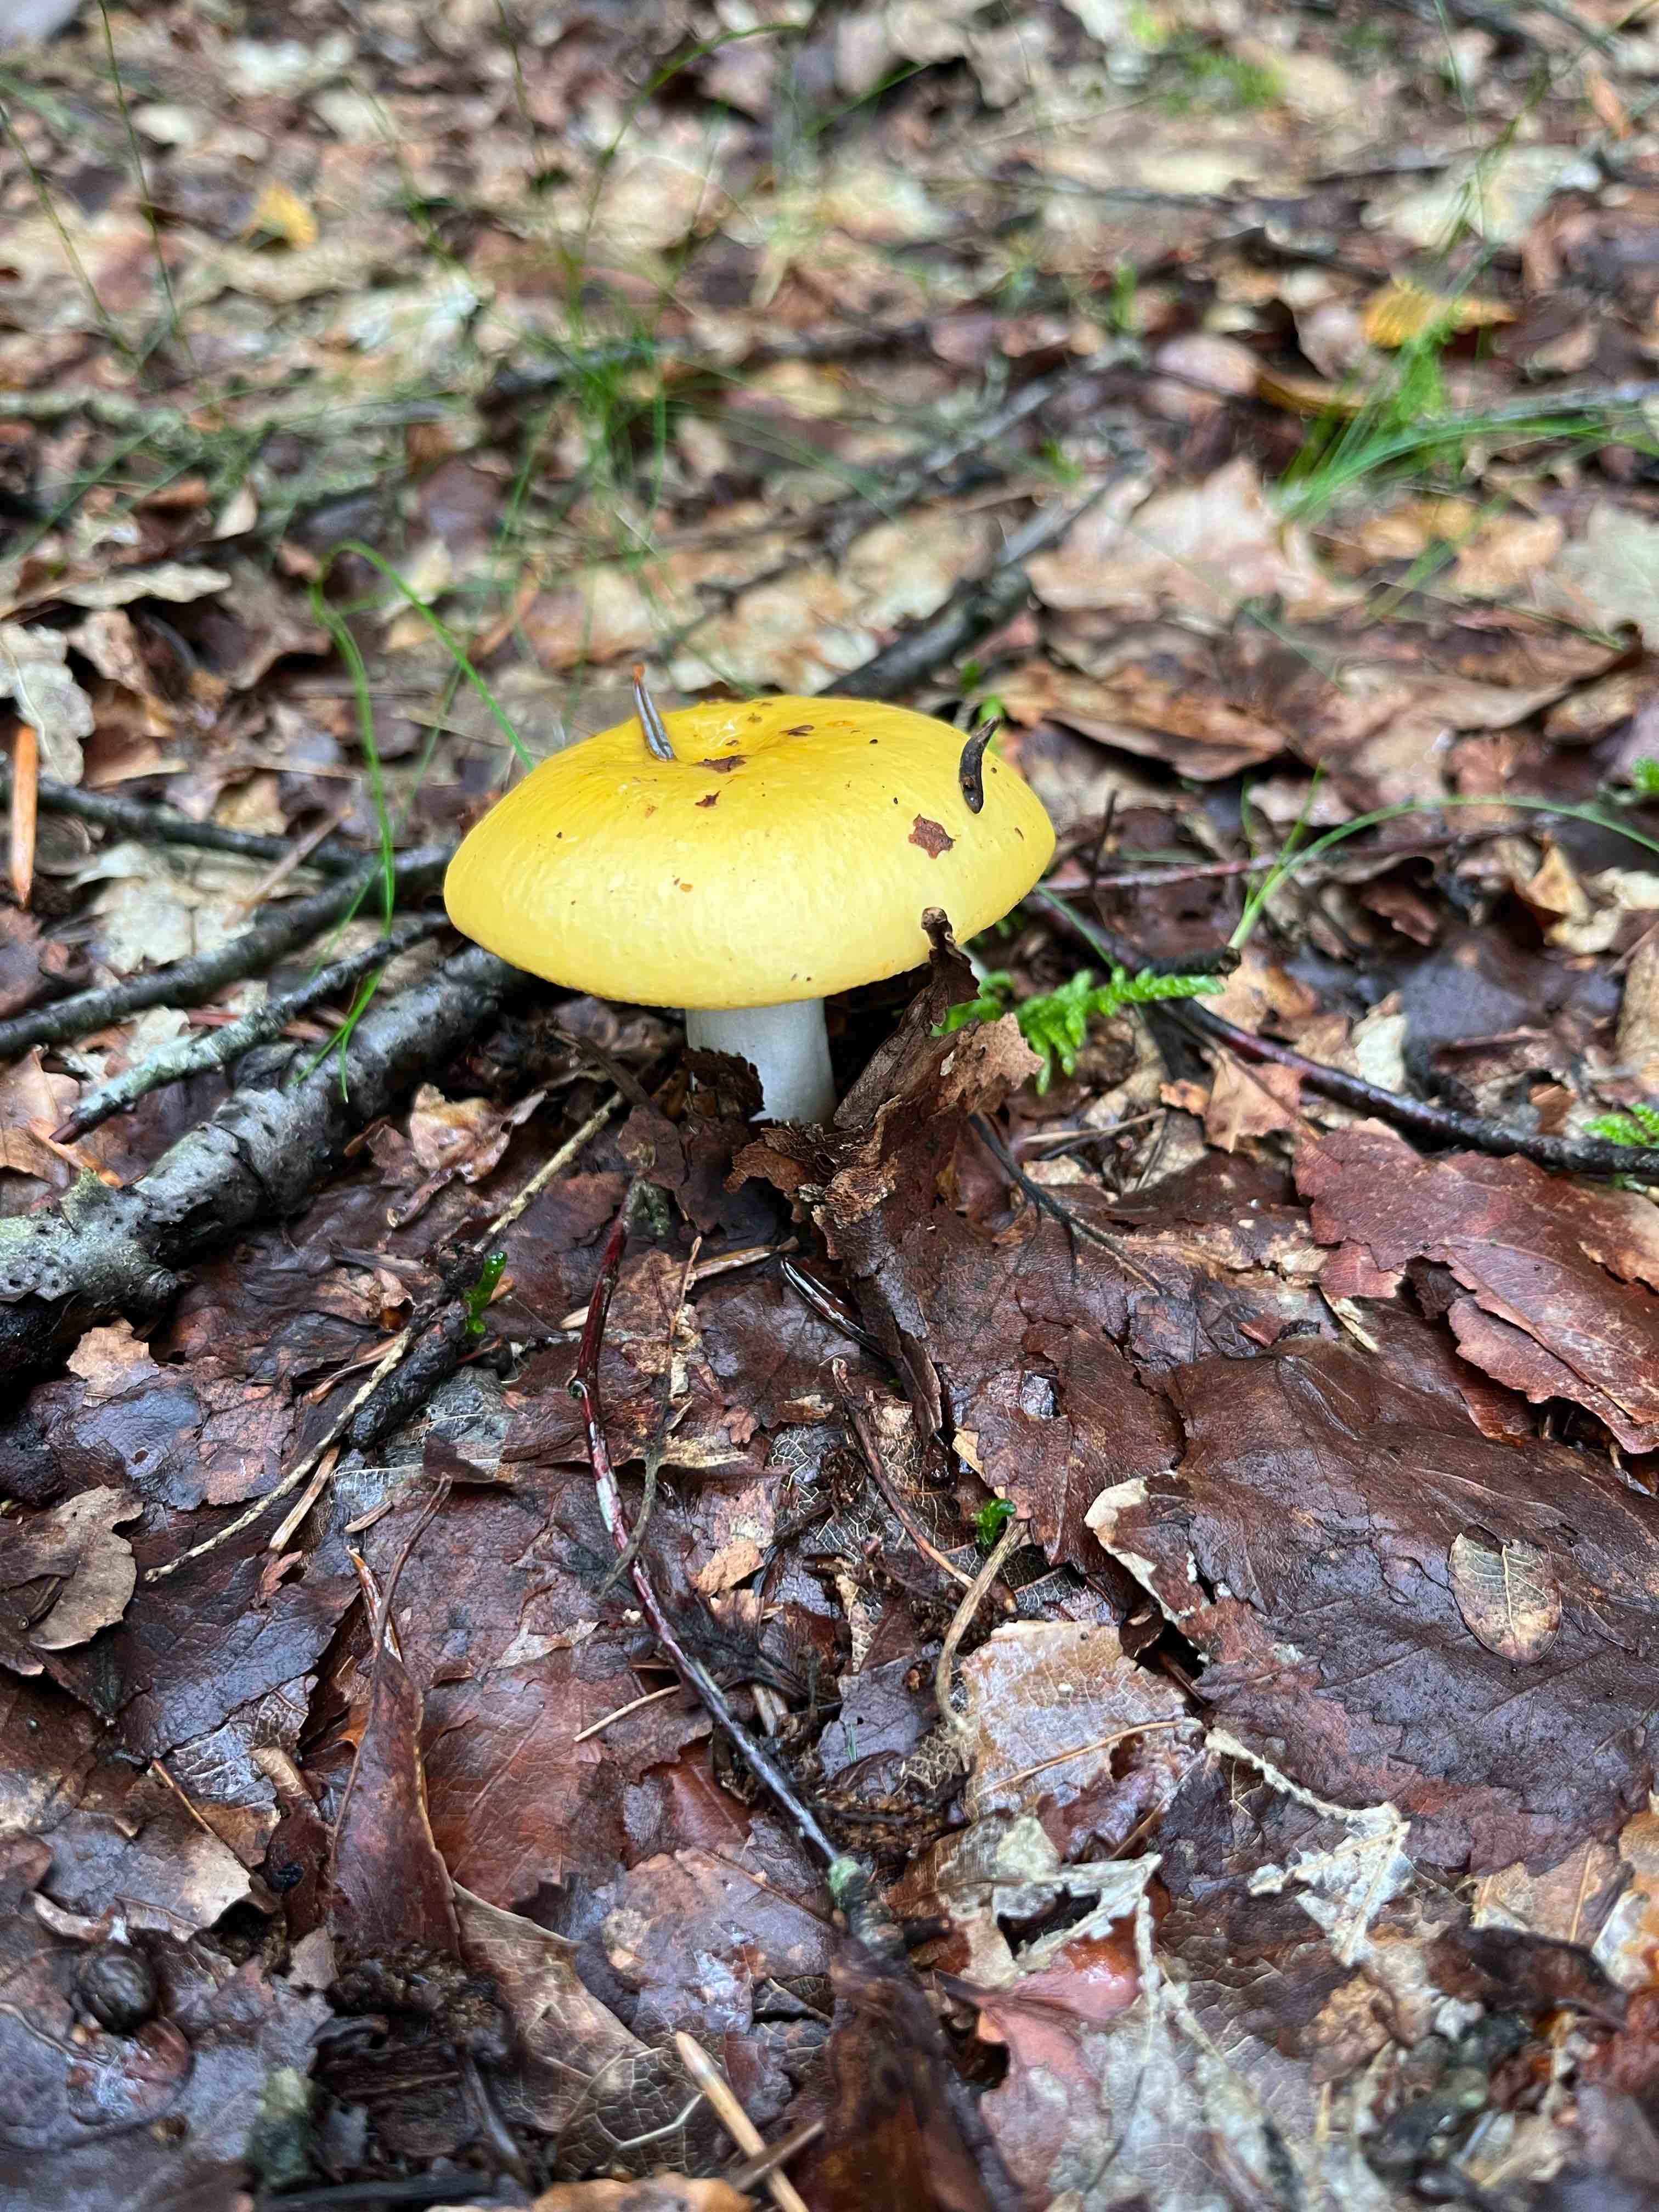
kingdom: Fungi
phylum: Basidiomycota
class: Agaricomycetes
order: Russulales
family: Russulaceae
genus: Russula
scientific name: Russula claroflava
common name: birke-skørhat
